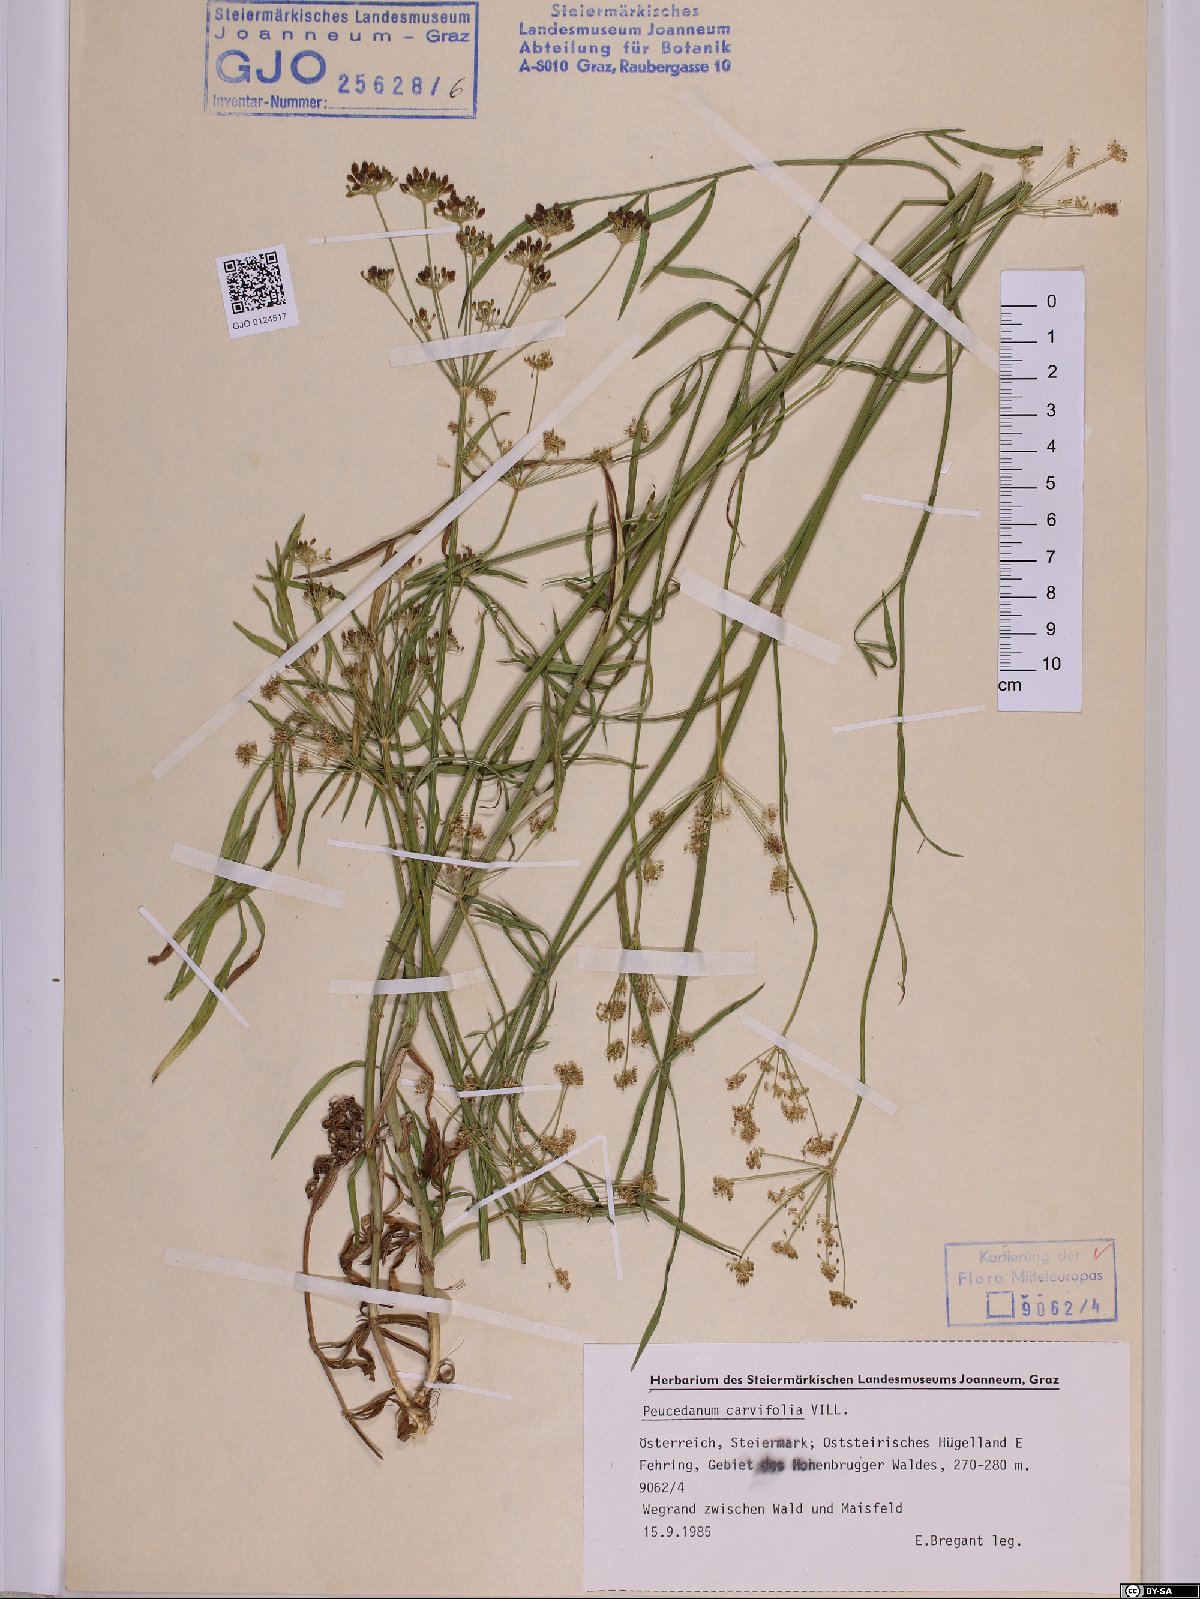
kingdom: Plantae
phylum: Tracheophyta
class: Magnoliopsida
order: Apiales
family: Apiaceae
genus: Dichoropetalum
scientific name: Dichoropetalum carvifolia
